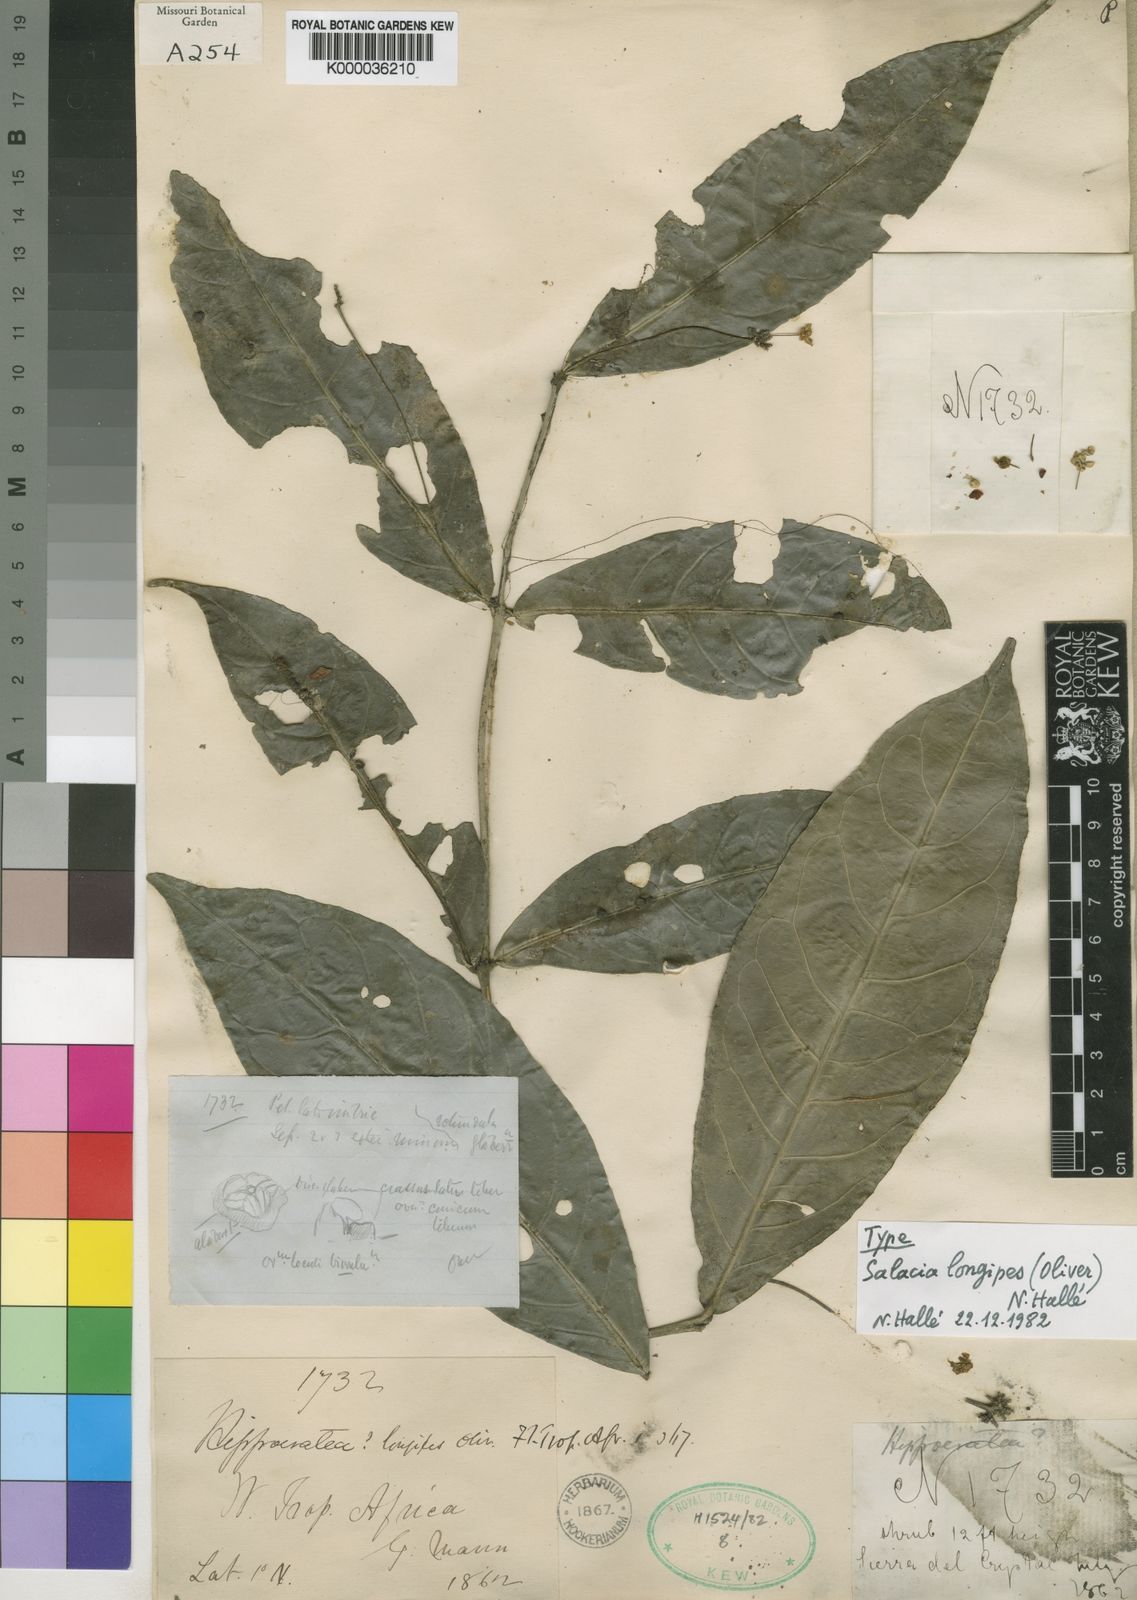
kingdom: Plantae
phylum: Tracheophyta
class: Magnoliopsida
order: Celastrales
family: Celastraceae
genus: Salacia
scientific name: Salacia
